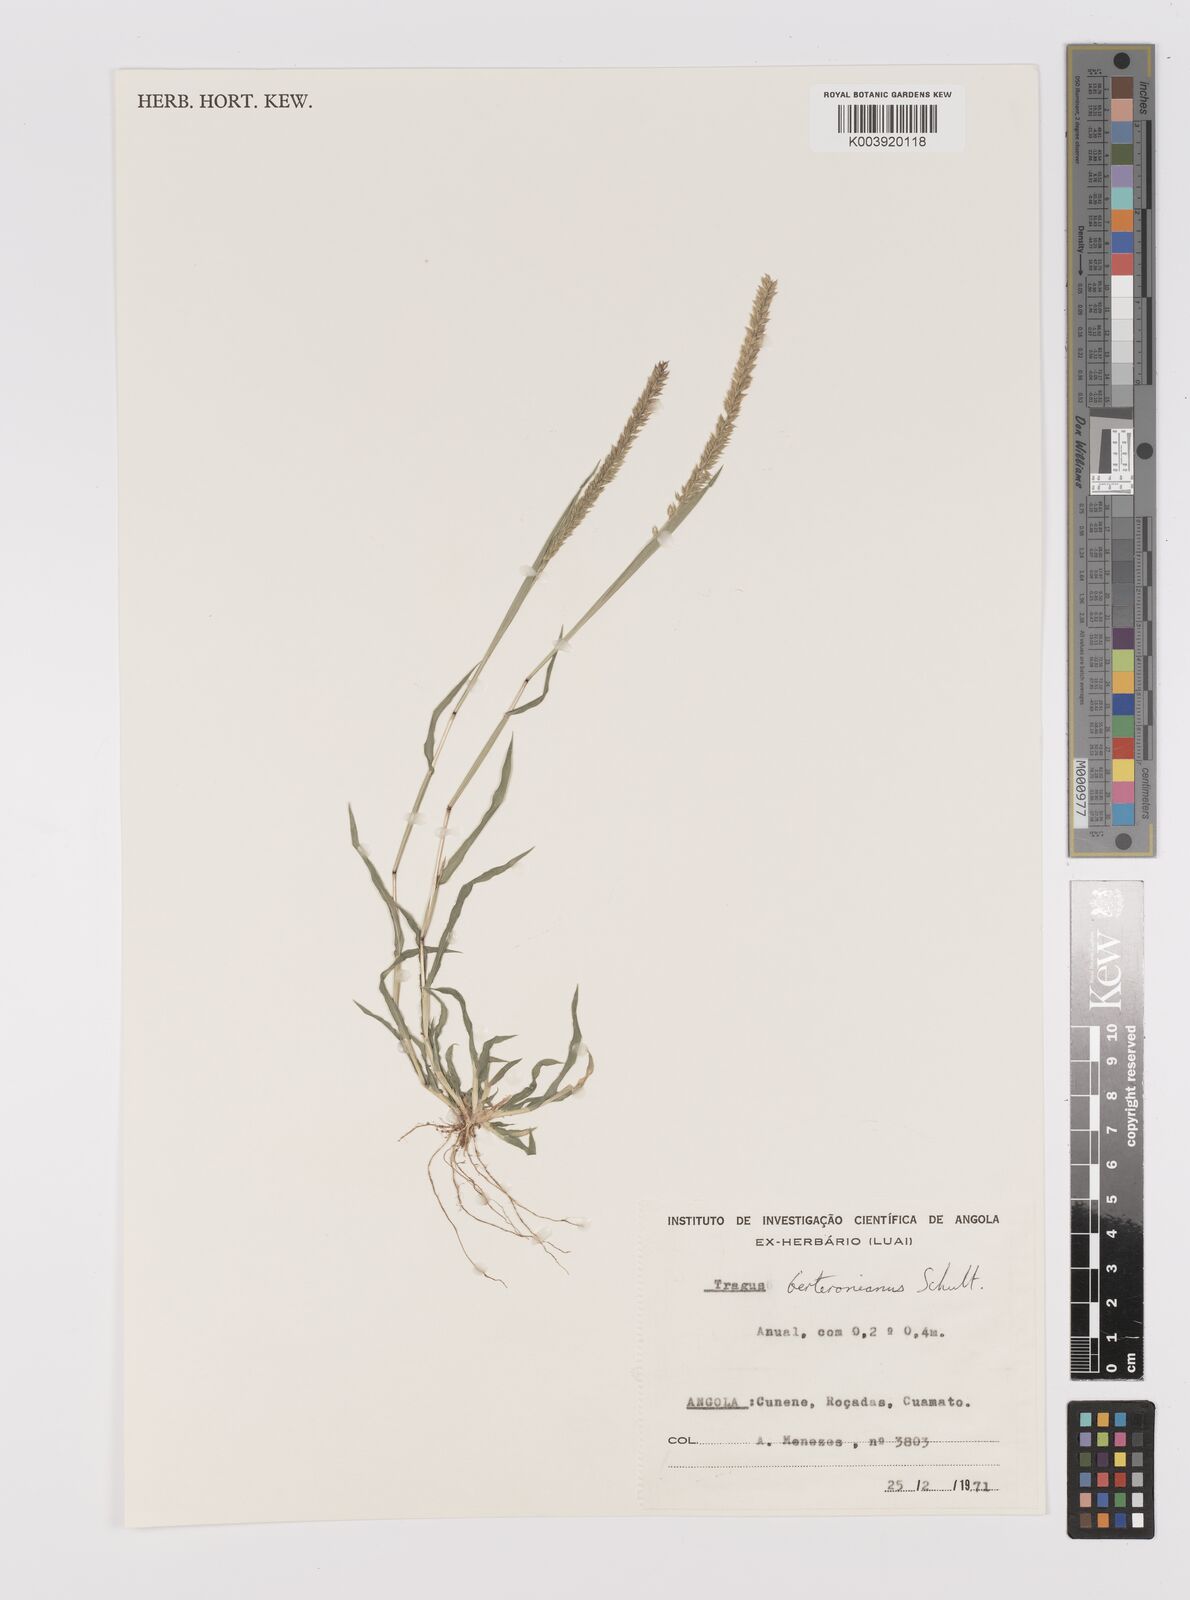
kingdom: Plantae
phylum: Tracheophyta
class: Liliopsida
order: Poales
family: Poaceae
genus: Tragus
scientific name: Tragus berteronianus
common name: African bur-grass
